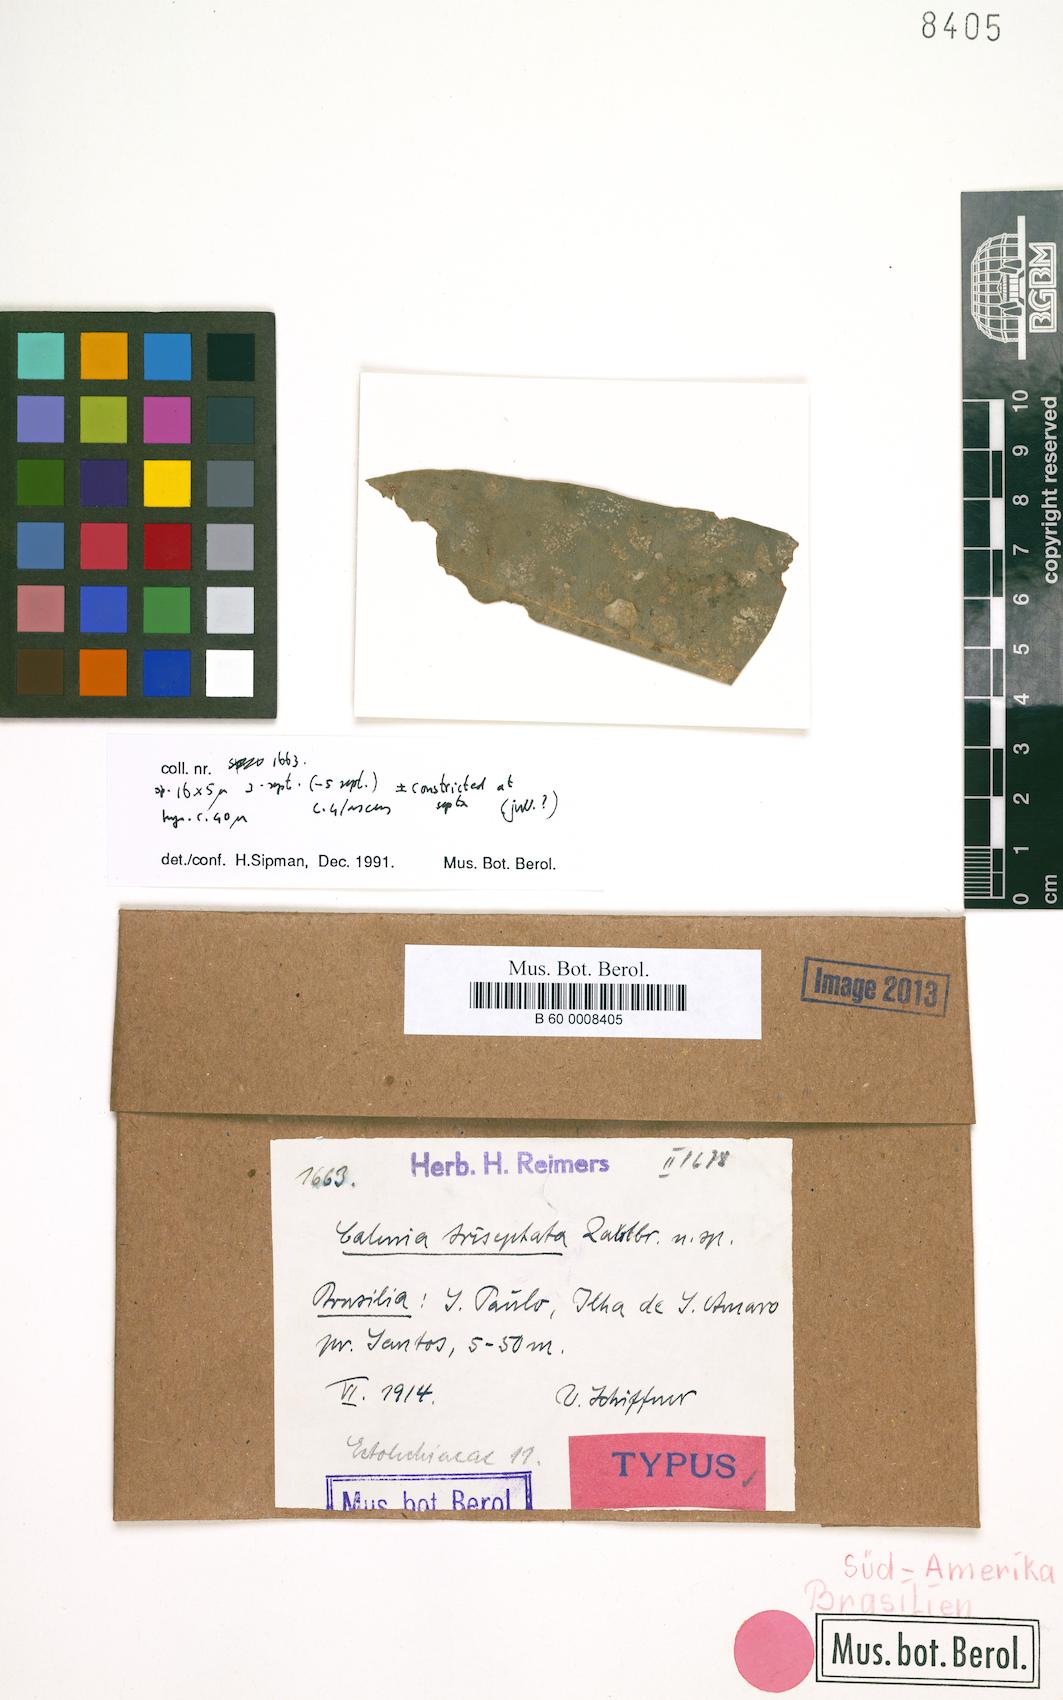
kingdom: Fungi
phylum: Ascomycota
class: Lecanoromycetes
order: Ostropales
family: Gomphillaceae
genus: Calenia
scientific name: Calenia triseptata
